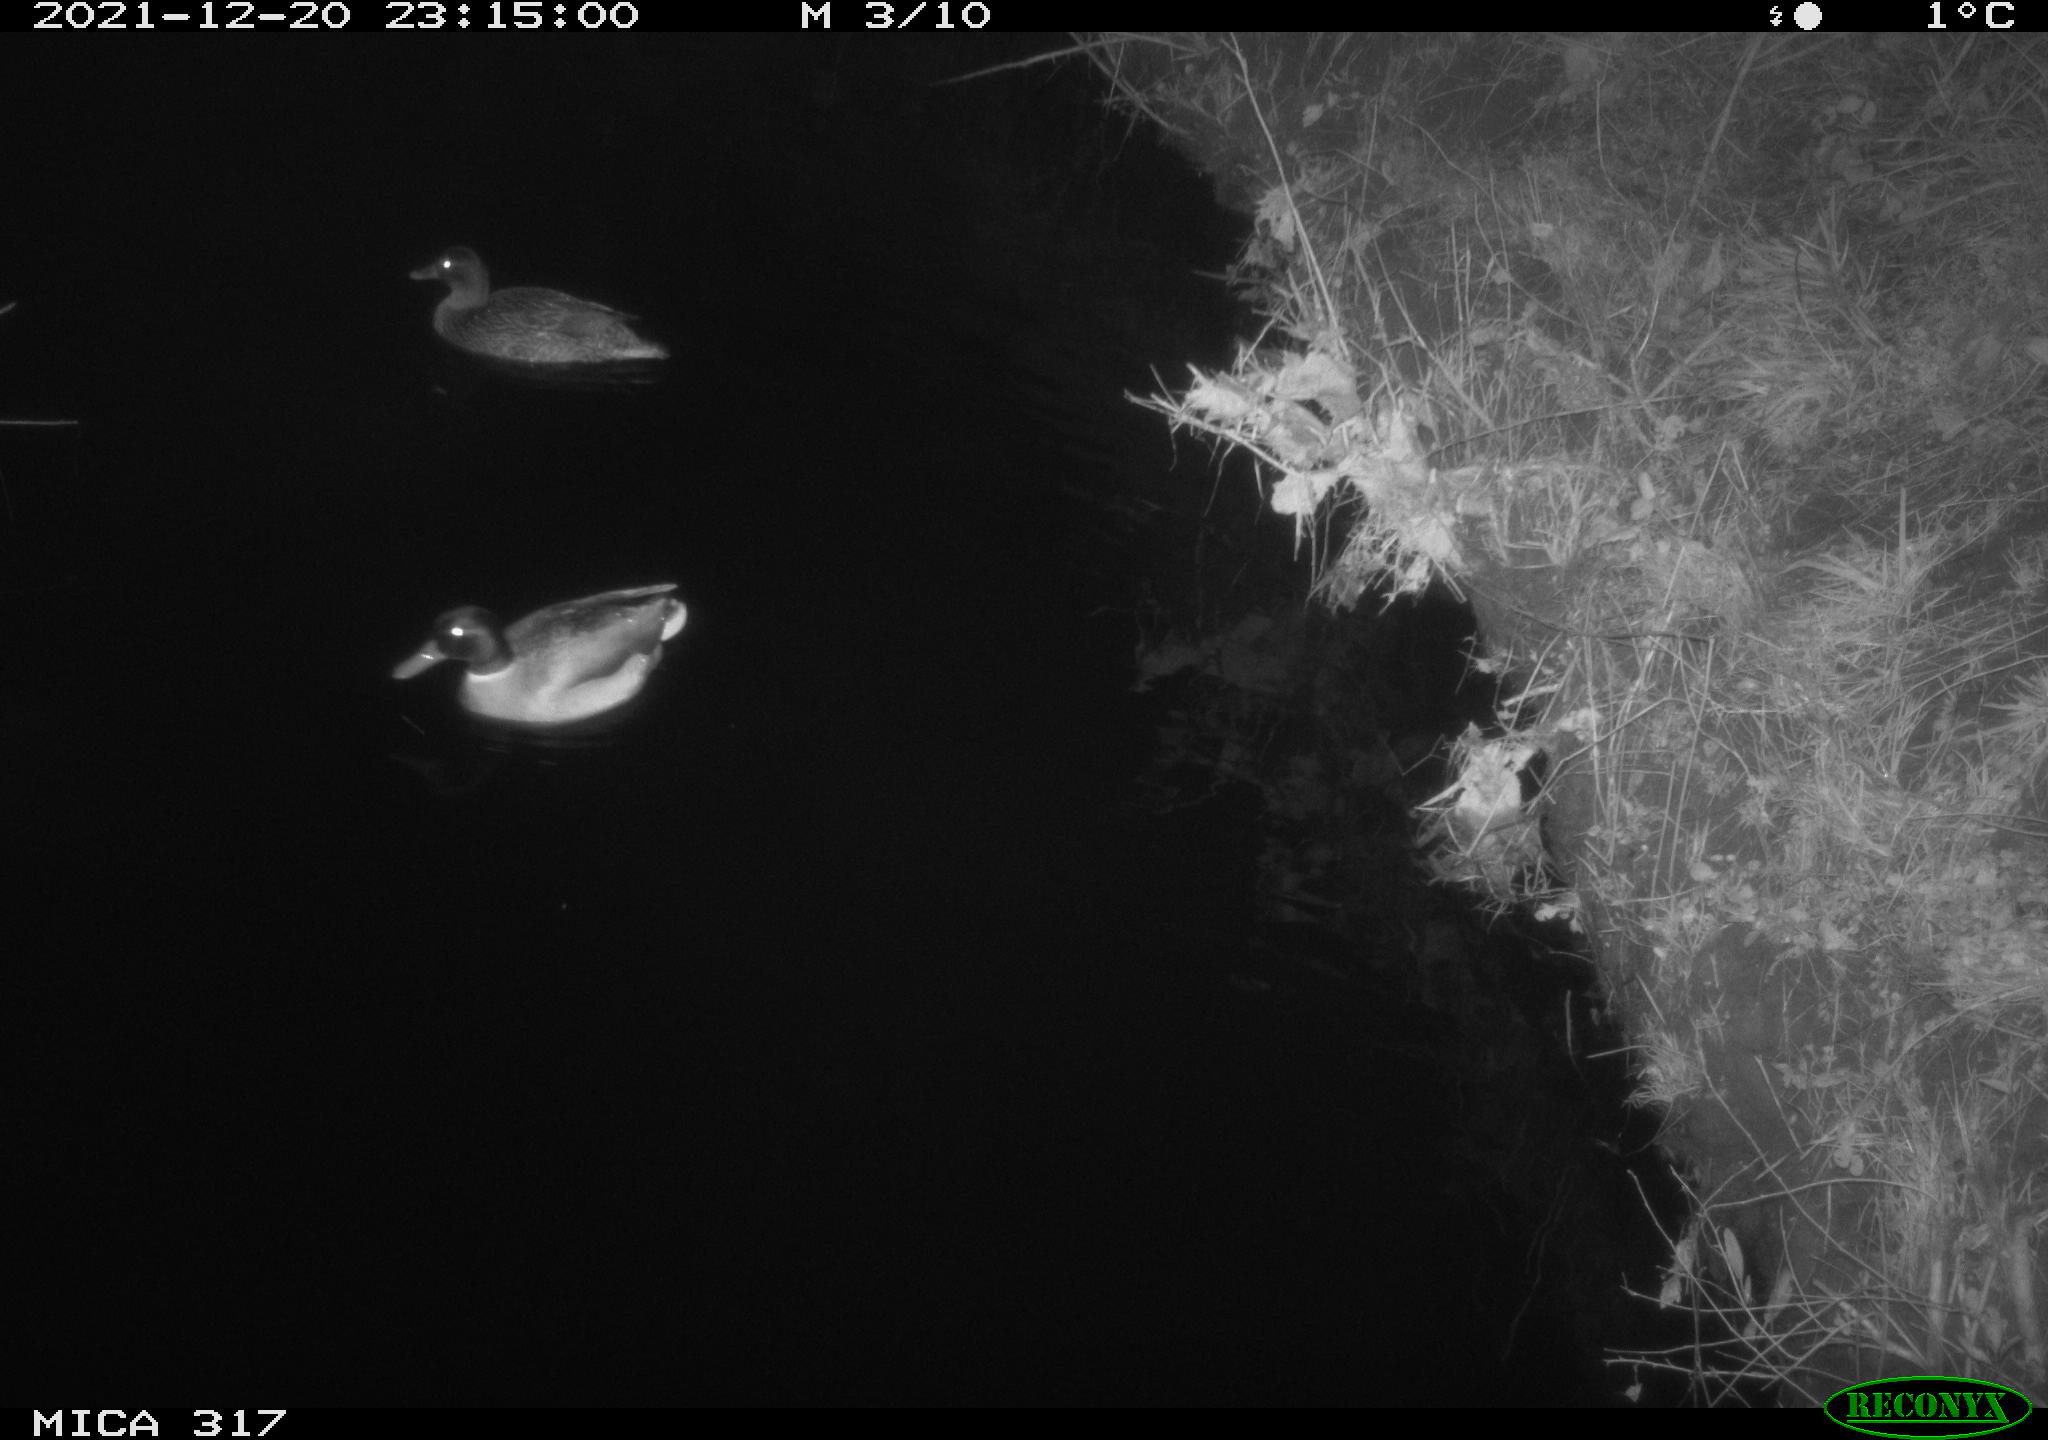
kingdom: Animalia
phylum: Chordata
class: Aves
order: Anseriformes
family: Anatidae
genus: Anas
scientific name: Anas platyrhynchos
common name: Mallard
